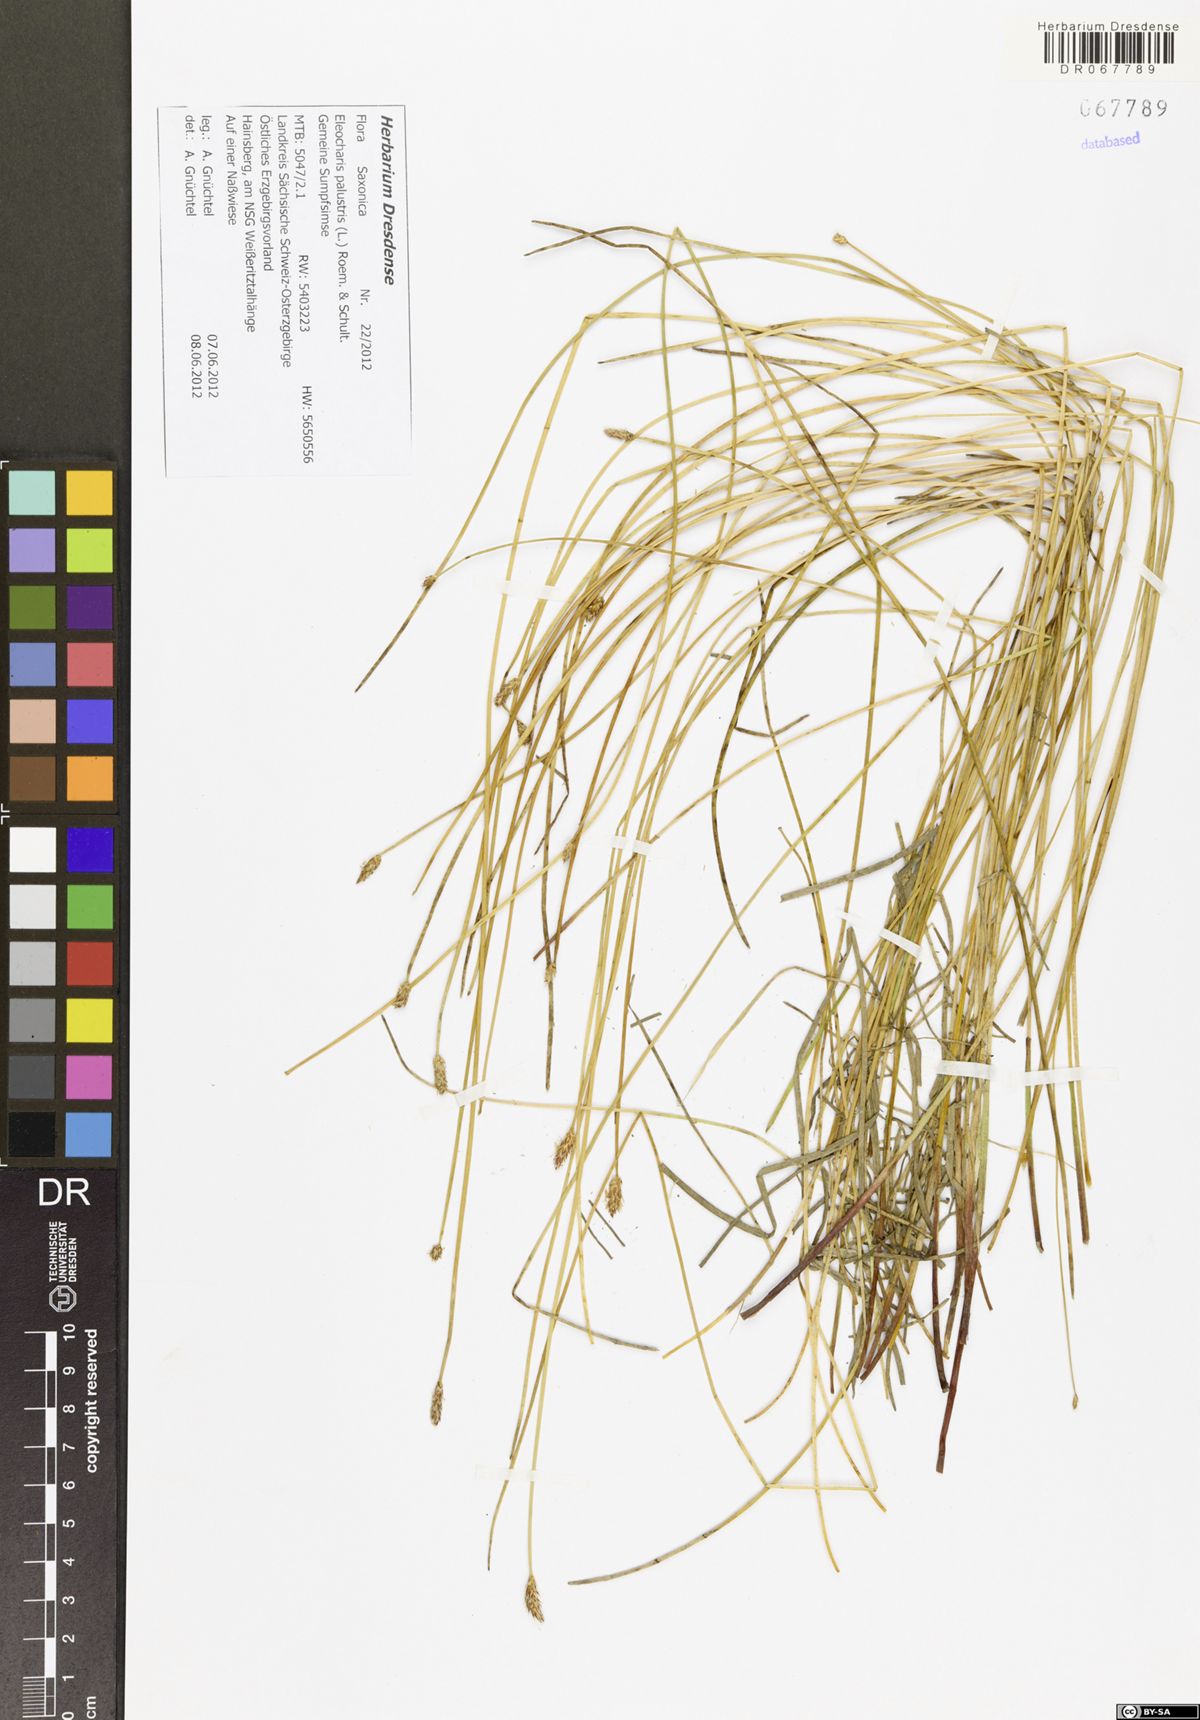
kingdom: Plantae
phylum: Tracheophyta
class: Liliopsida
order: Poales
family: Cyperaceae
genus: Eleocharis
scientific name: Eleocharis palustris
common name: Common spike-rush
